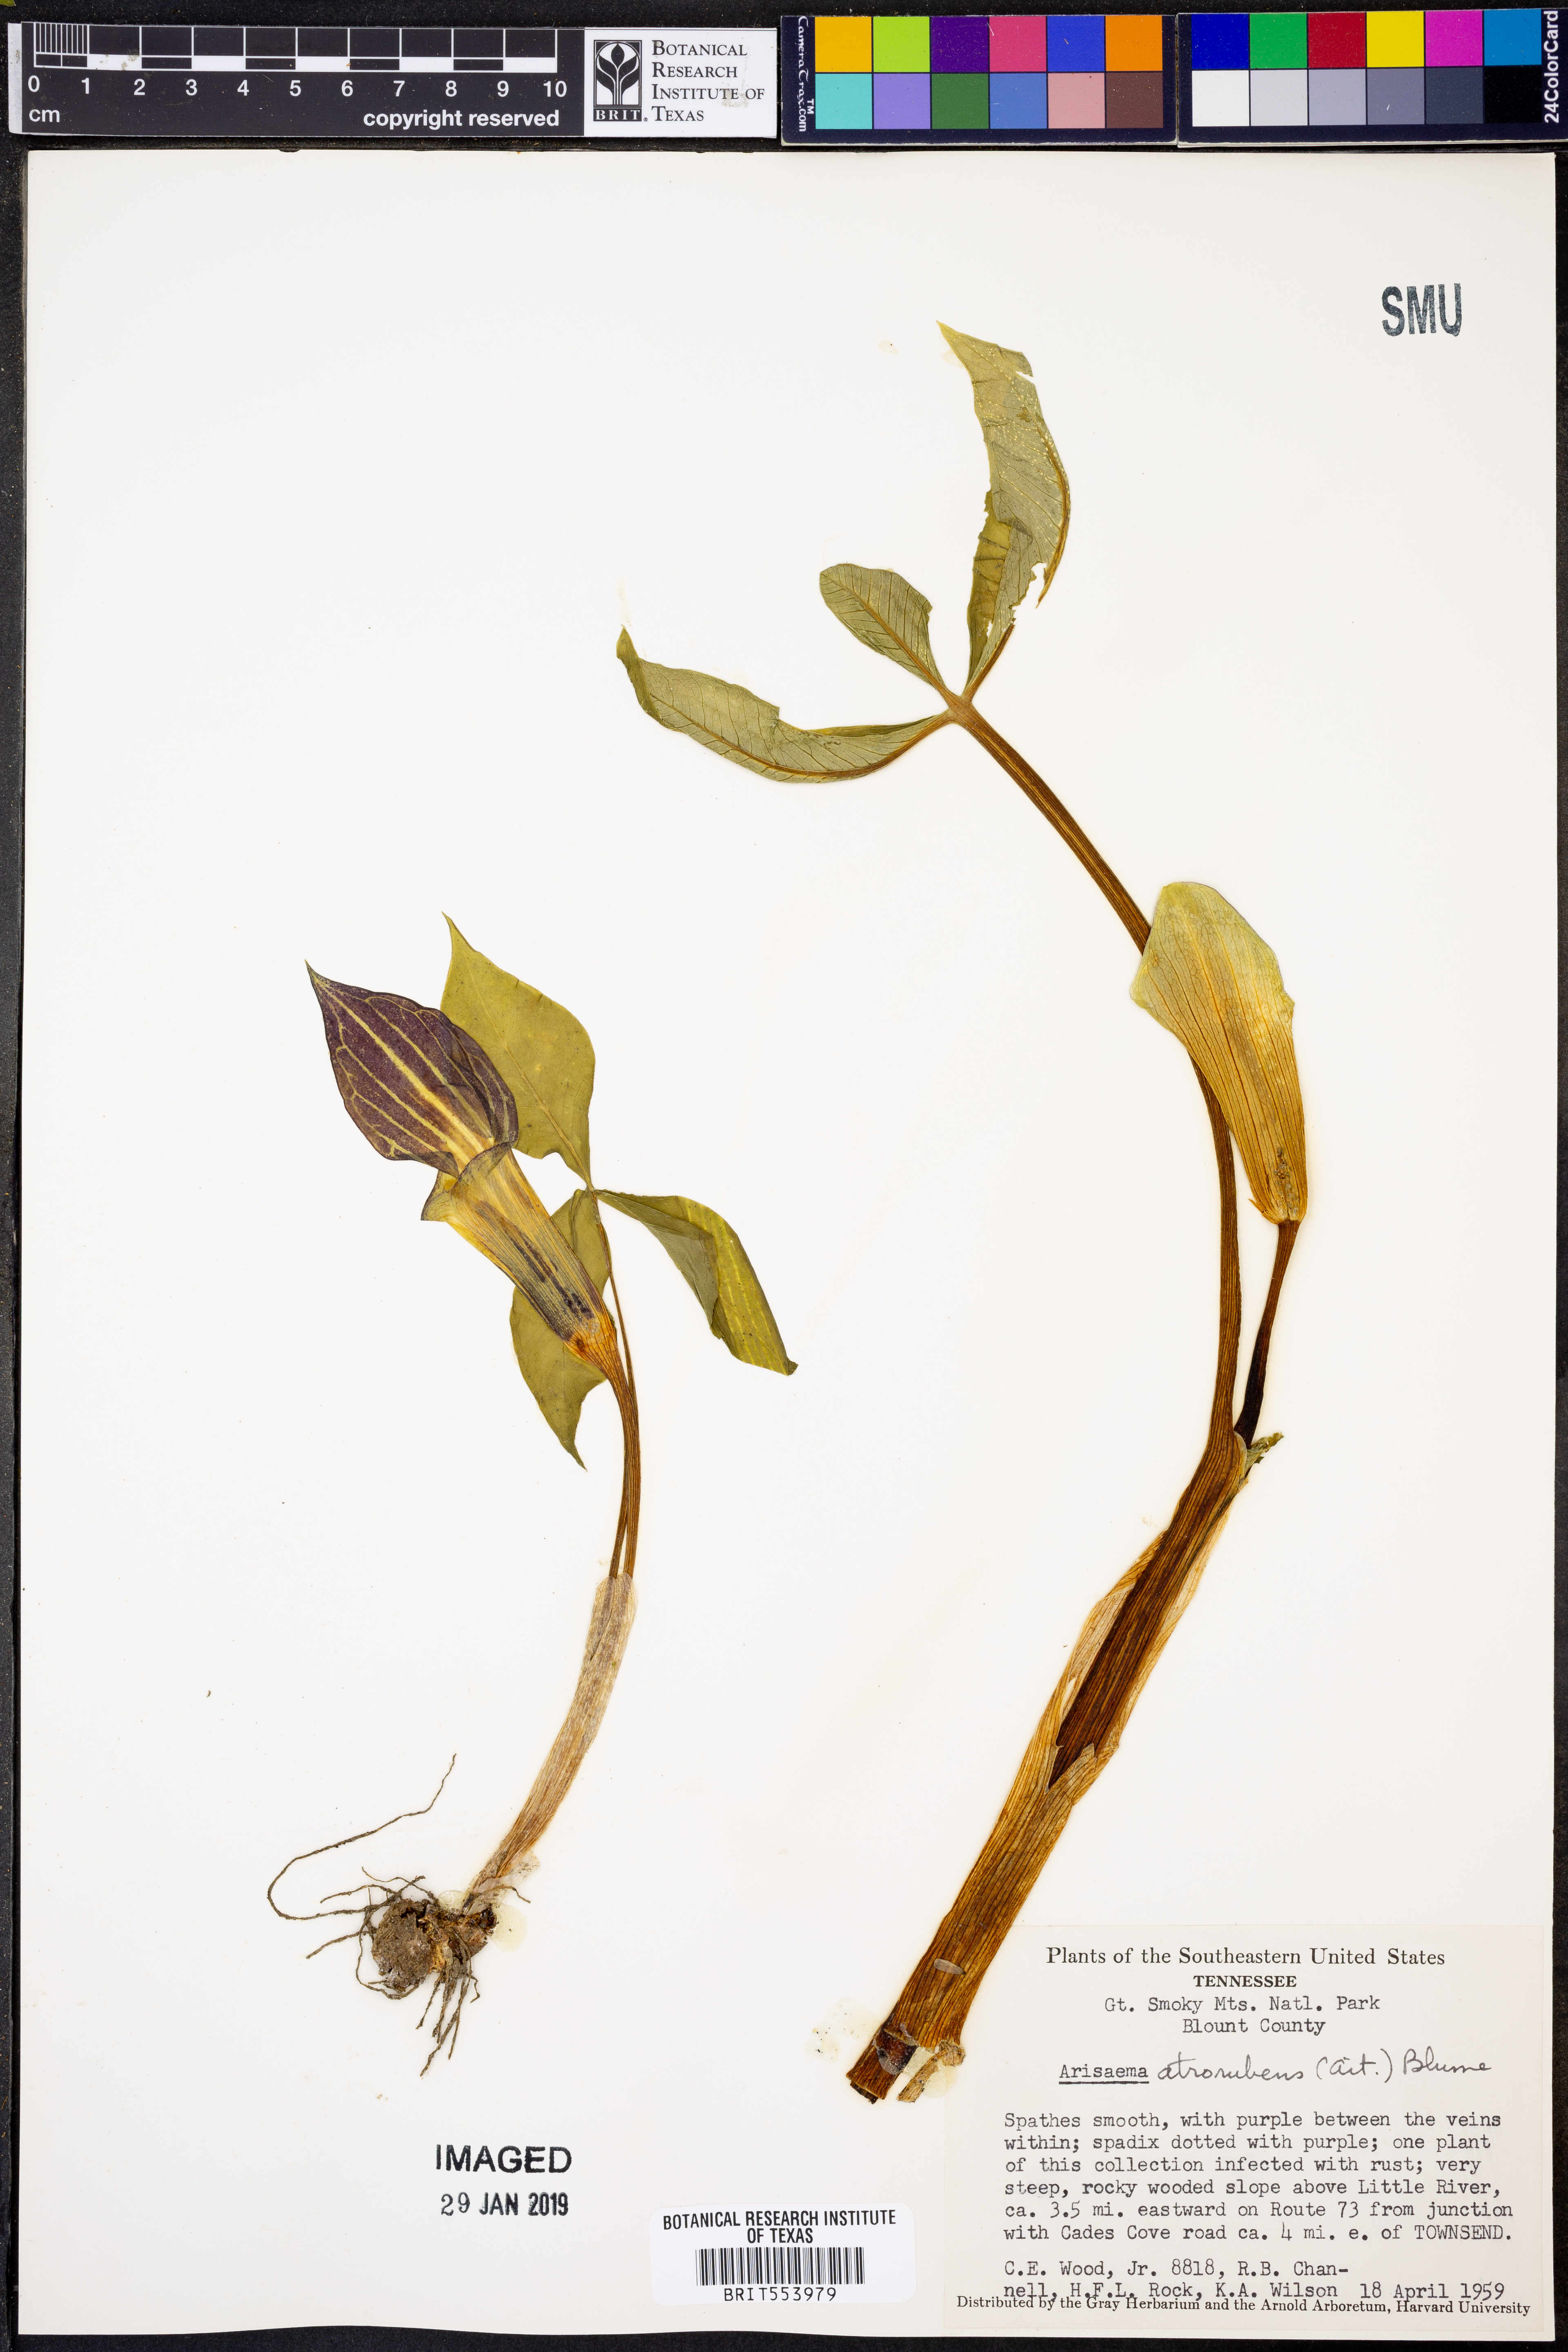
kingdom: Plantae
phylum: Tracheophyta
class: Liliopsida
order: Alismatales
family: Araceae
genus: Arisaema
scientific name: Arisaema triphyllum
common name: Jack-in-the-pulpit
